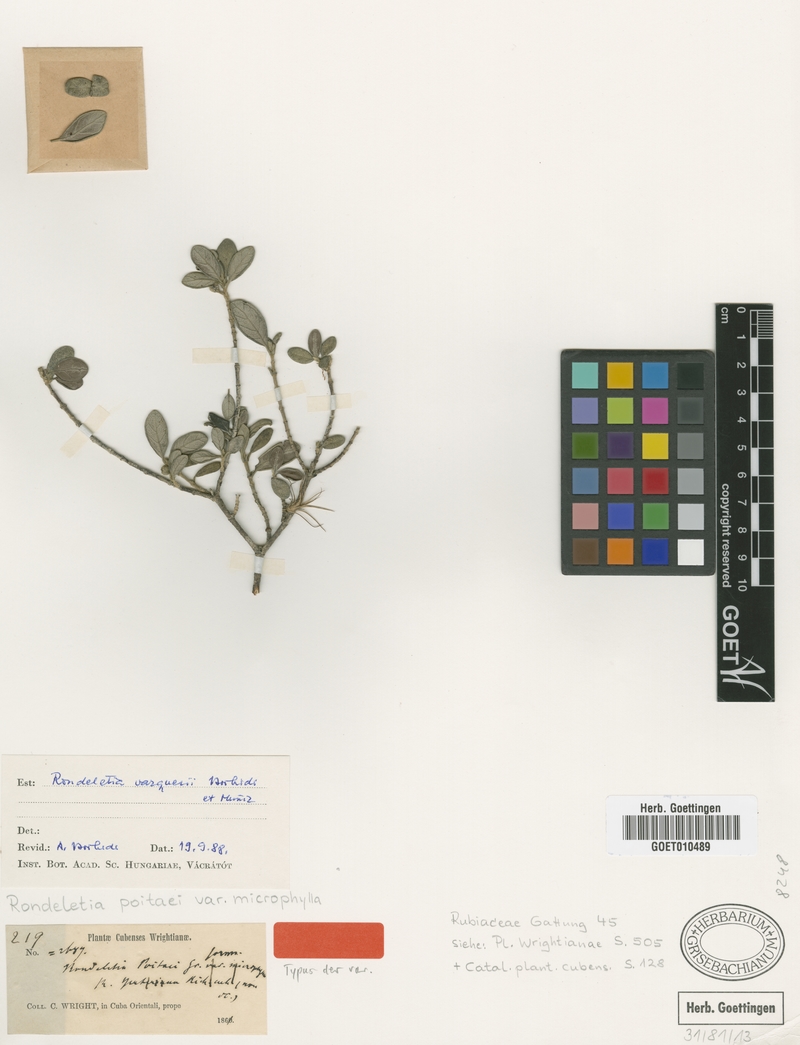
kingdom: Plantae
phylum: Tracheophyta
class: Magnoliopsida
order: Gentianales
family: Rubiaceae
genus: Rondeletia
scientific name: Rondeletia vazquezii
